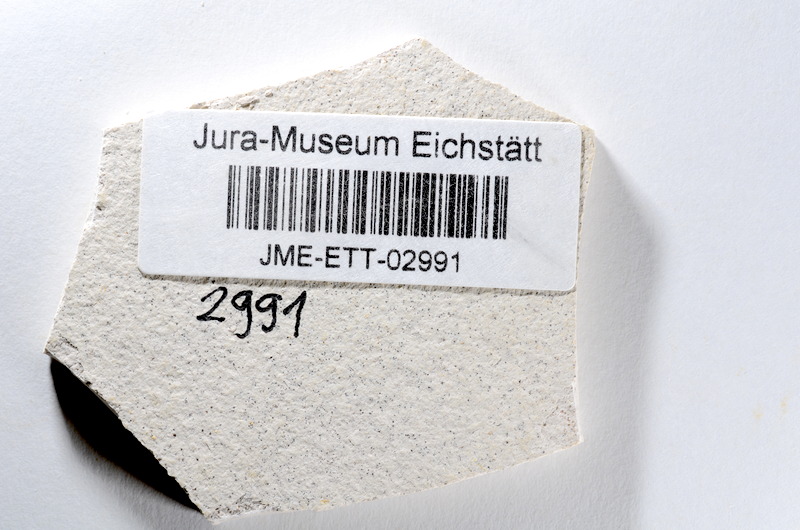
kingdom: Animalia
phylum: Chordata
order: Salmoniformes
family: Orthogonikleithridae
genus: Orthogonikleithrus
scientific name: Orthogonikleithrus hoelli
